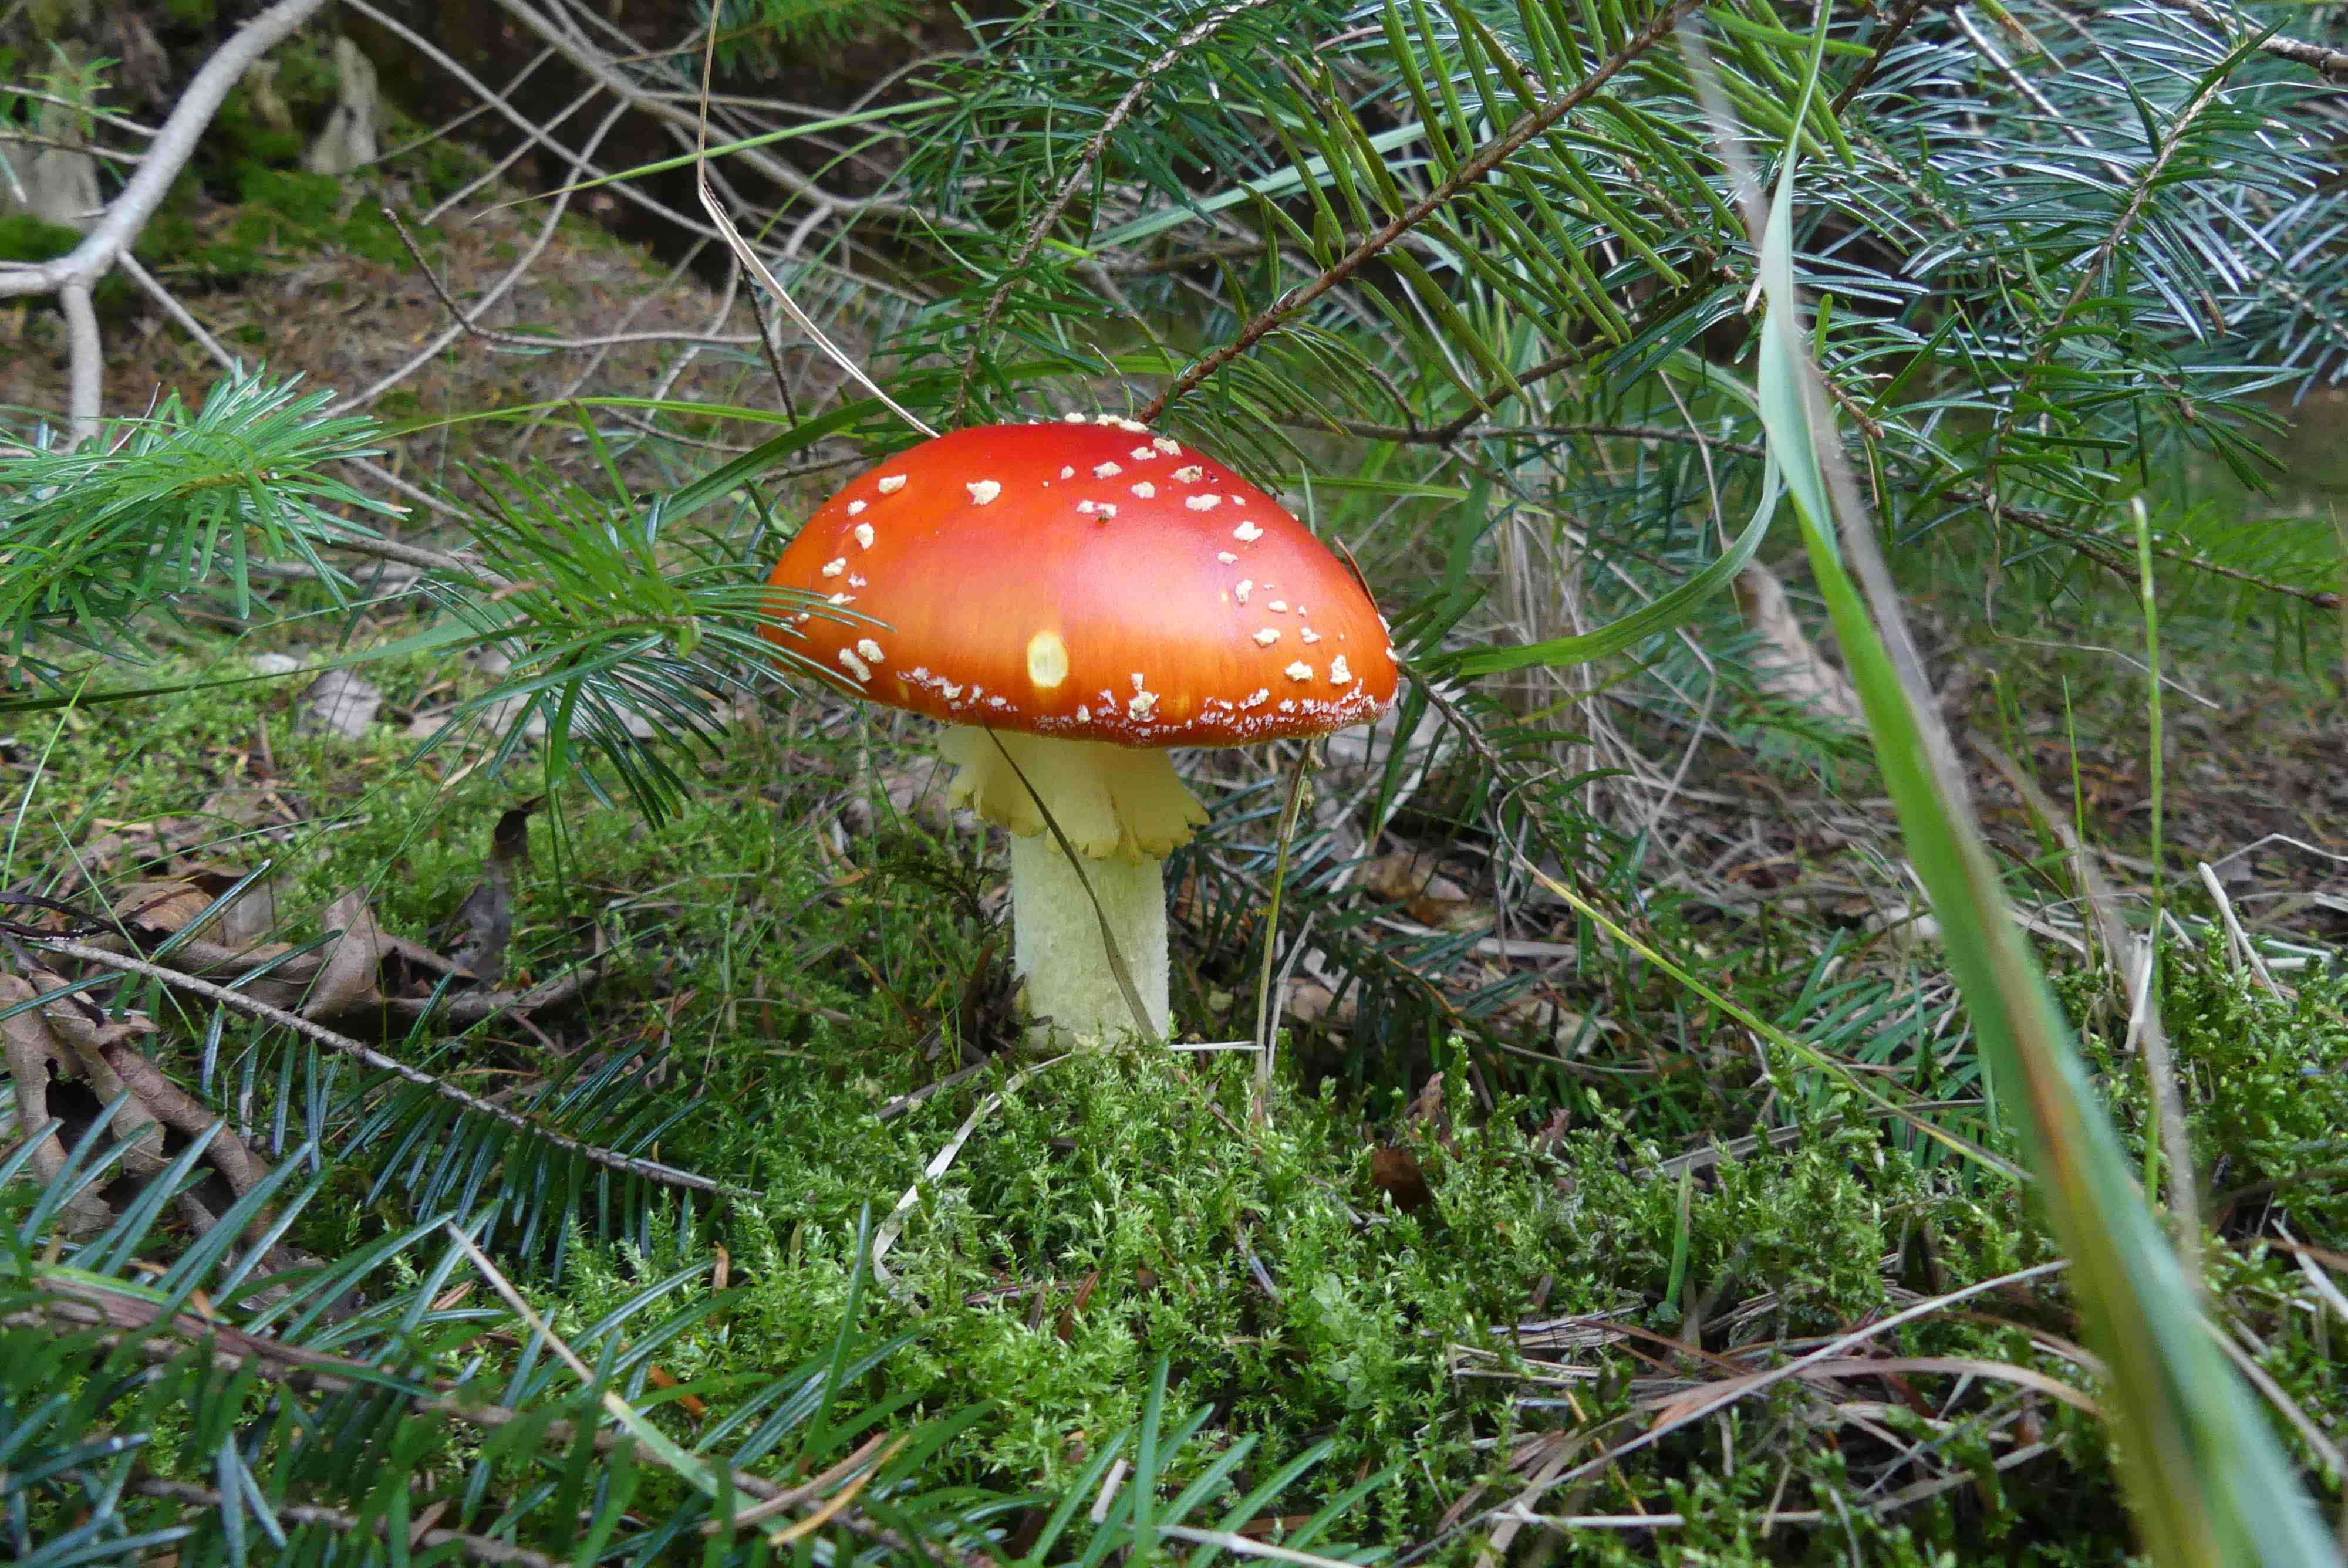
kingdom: Fungi
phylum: Basidiomycota
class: Agaricomycetes
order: Agaricales
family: Amanitaceae
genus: Amanita
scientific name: Amanita muscaria
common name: rød fluesvamp
